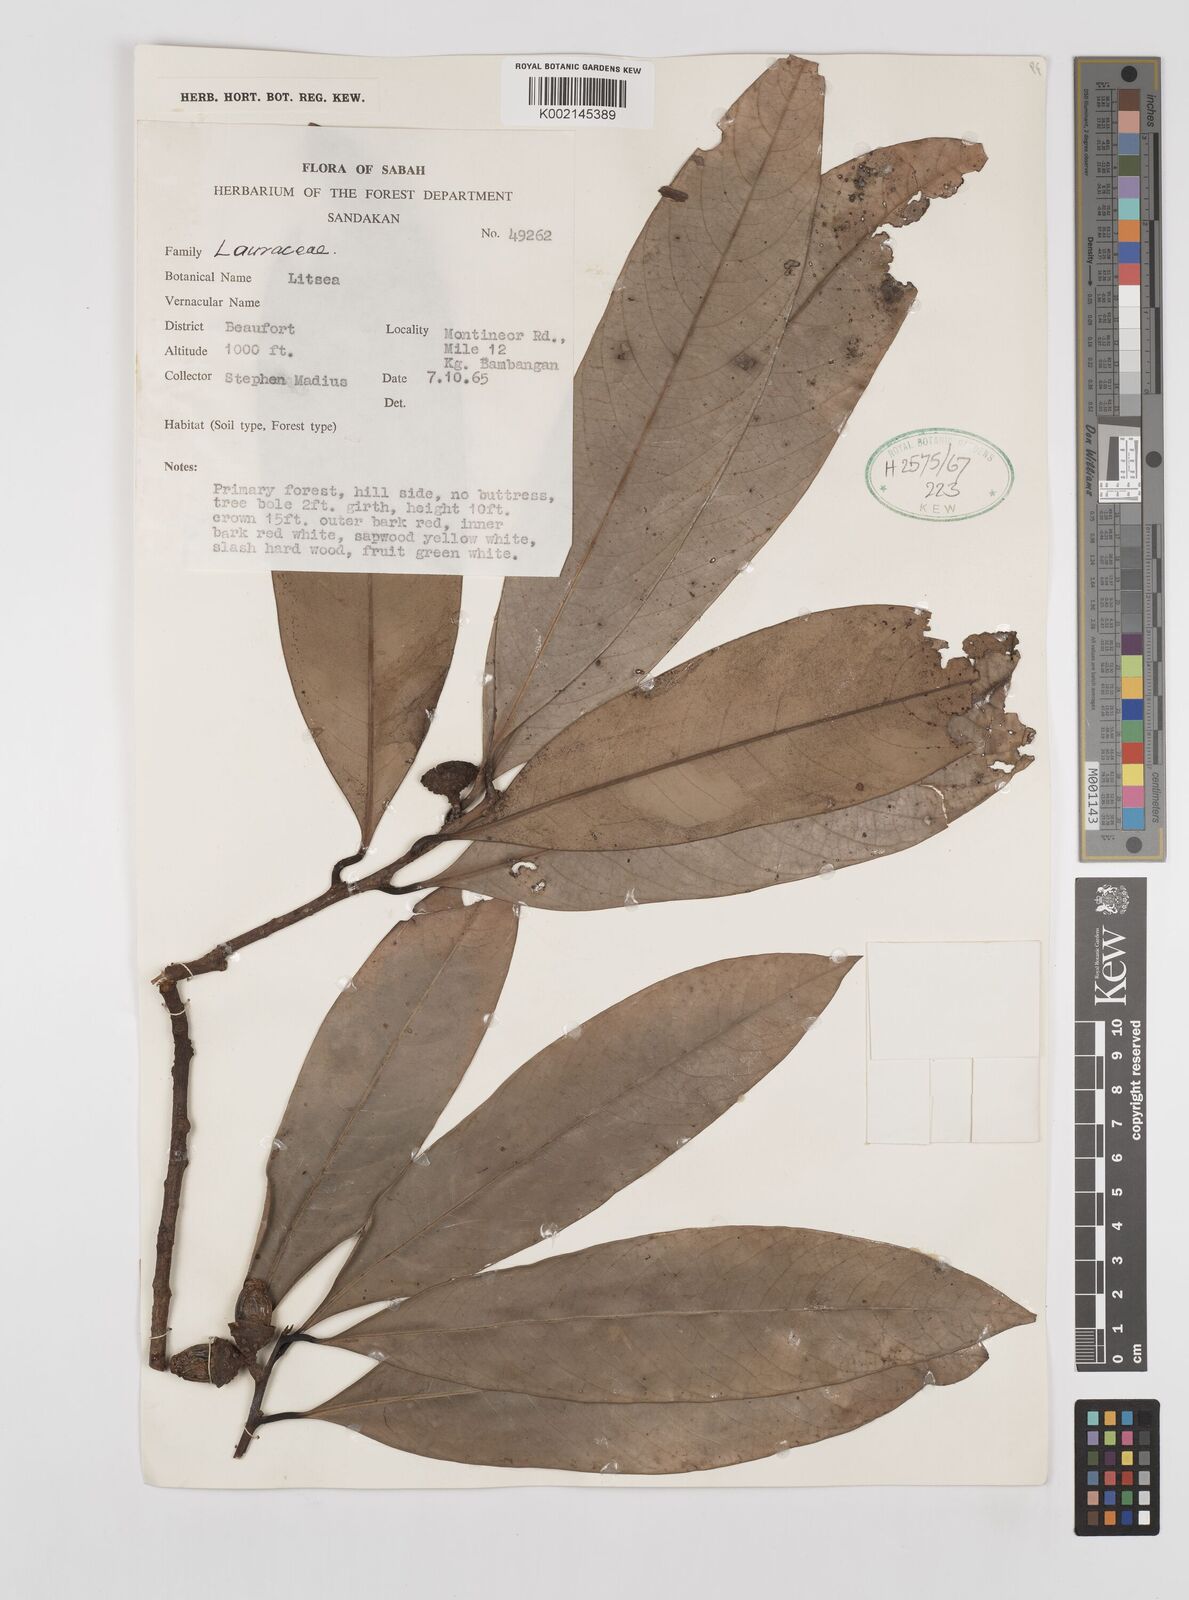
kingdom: Plantae
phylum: Tracheophyta
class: Magnoliopsida
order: Laurales
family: Lauraceae
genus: Litsea
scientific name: Litsea
